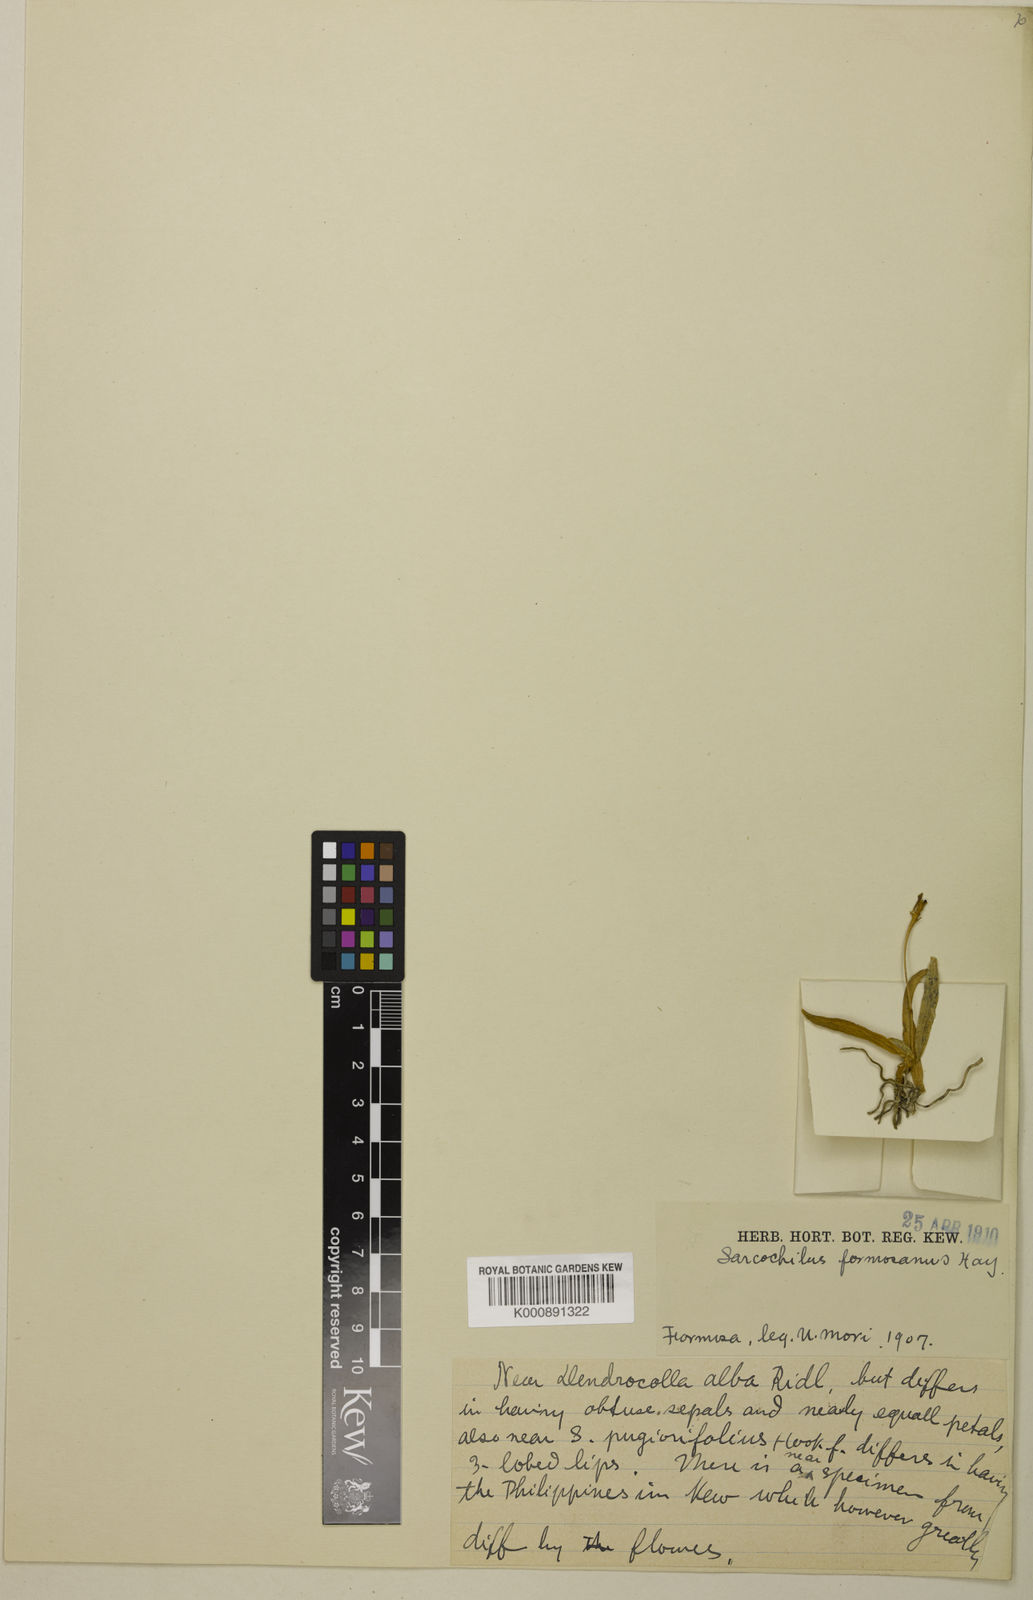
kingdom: Plantae
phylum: Tracheophyta
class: Liliopsida
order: Asparagales
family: Orchidaceae
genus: Thrixspermum
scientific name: Thrixspermum formosanum
